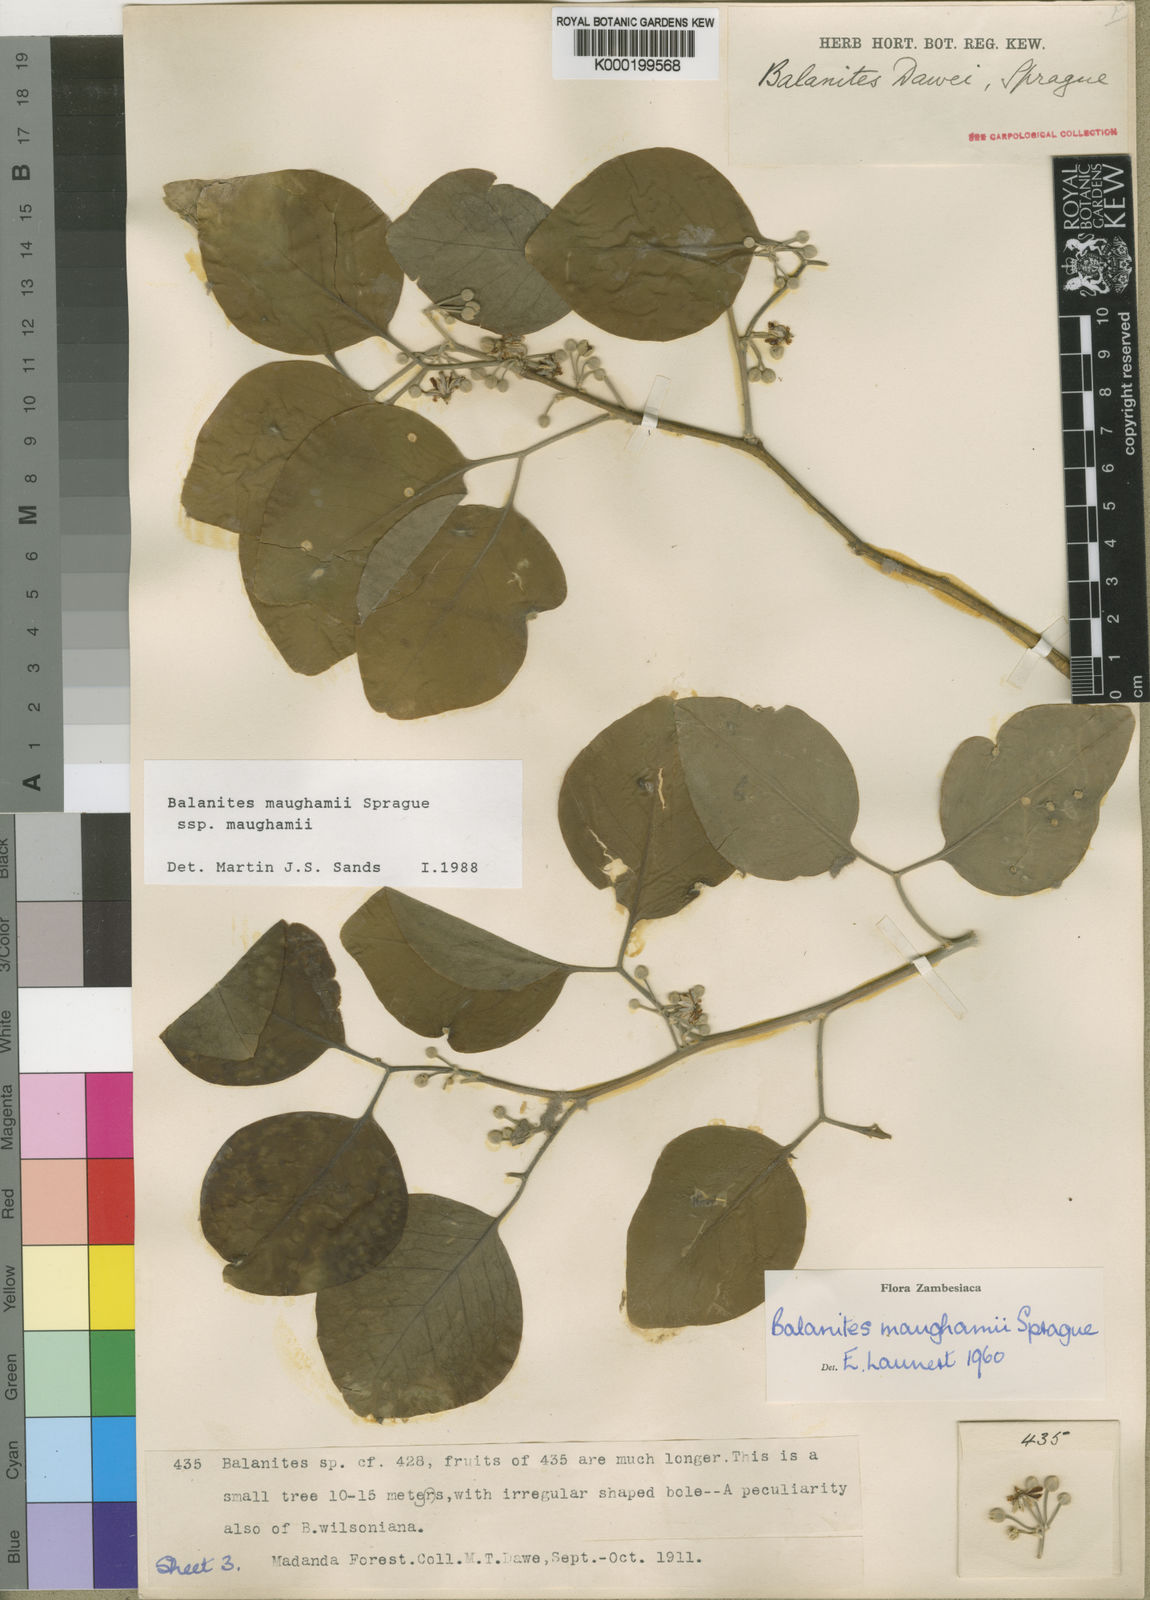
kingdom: Plantae
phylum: Tracheophyta
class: Magnoliopsida
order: Zygophyllales
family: Zygophyllaceae
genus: Balanites
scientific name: Balanites maughamii
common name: Torchwood
